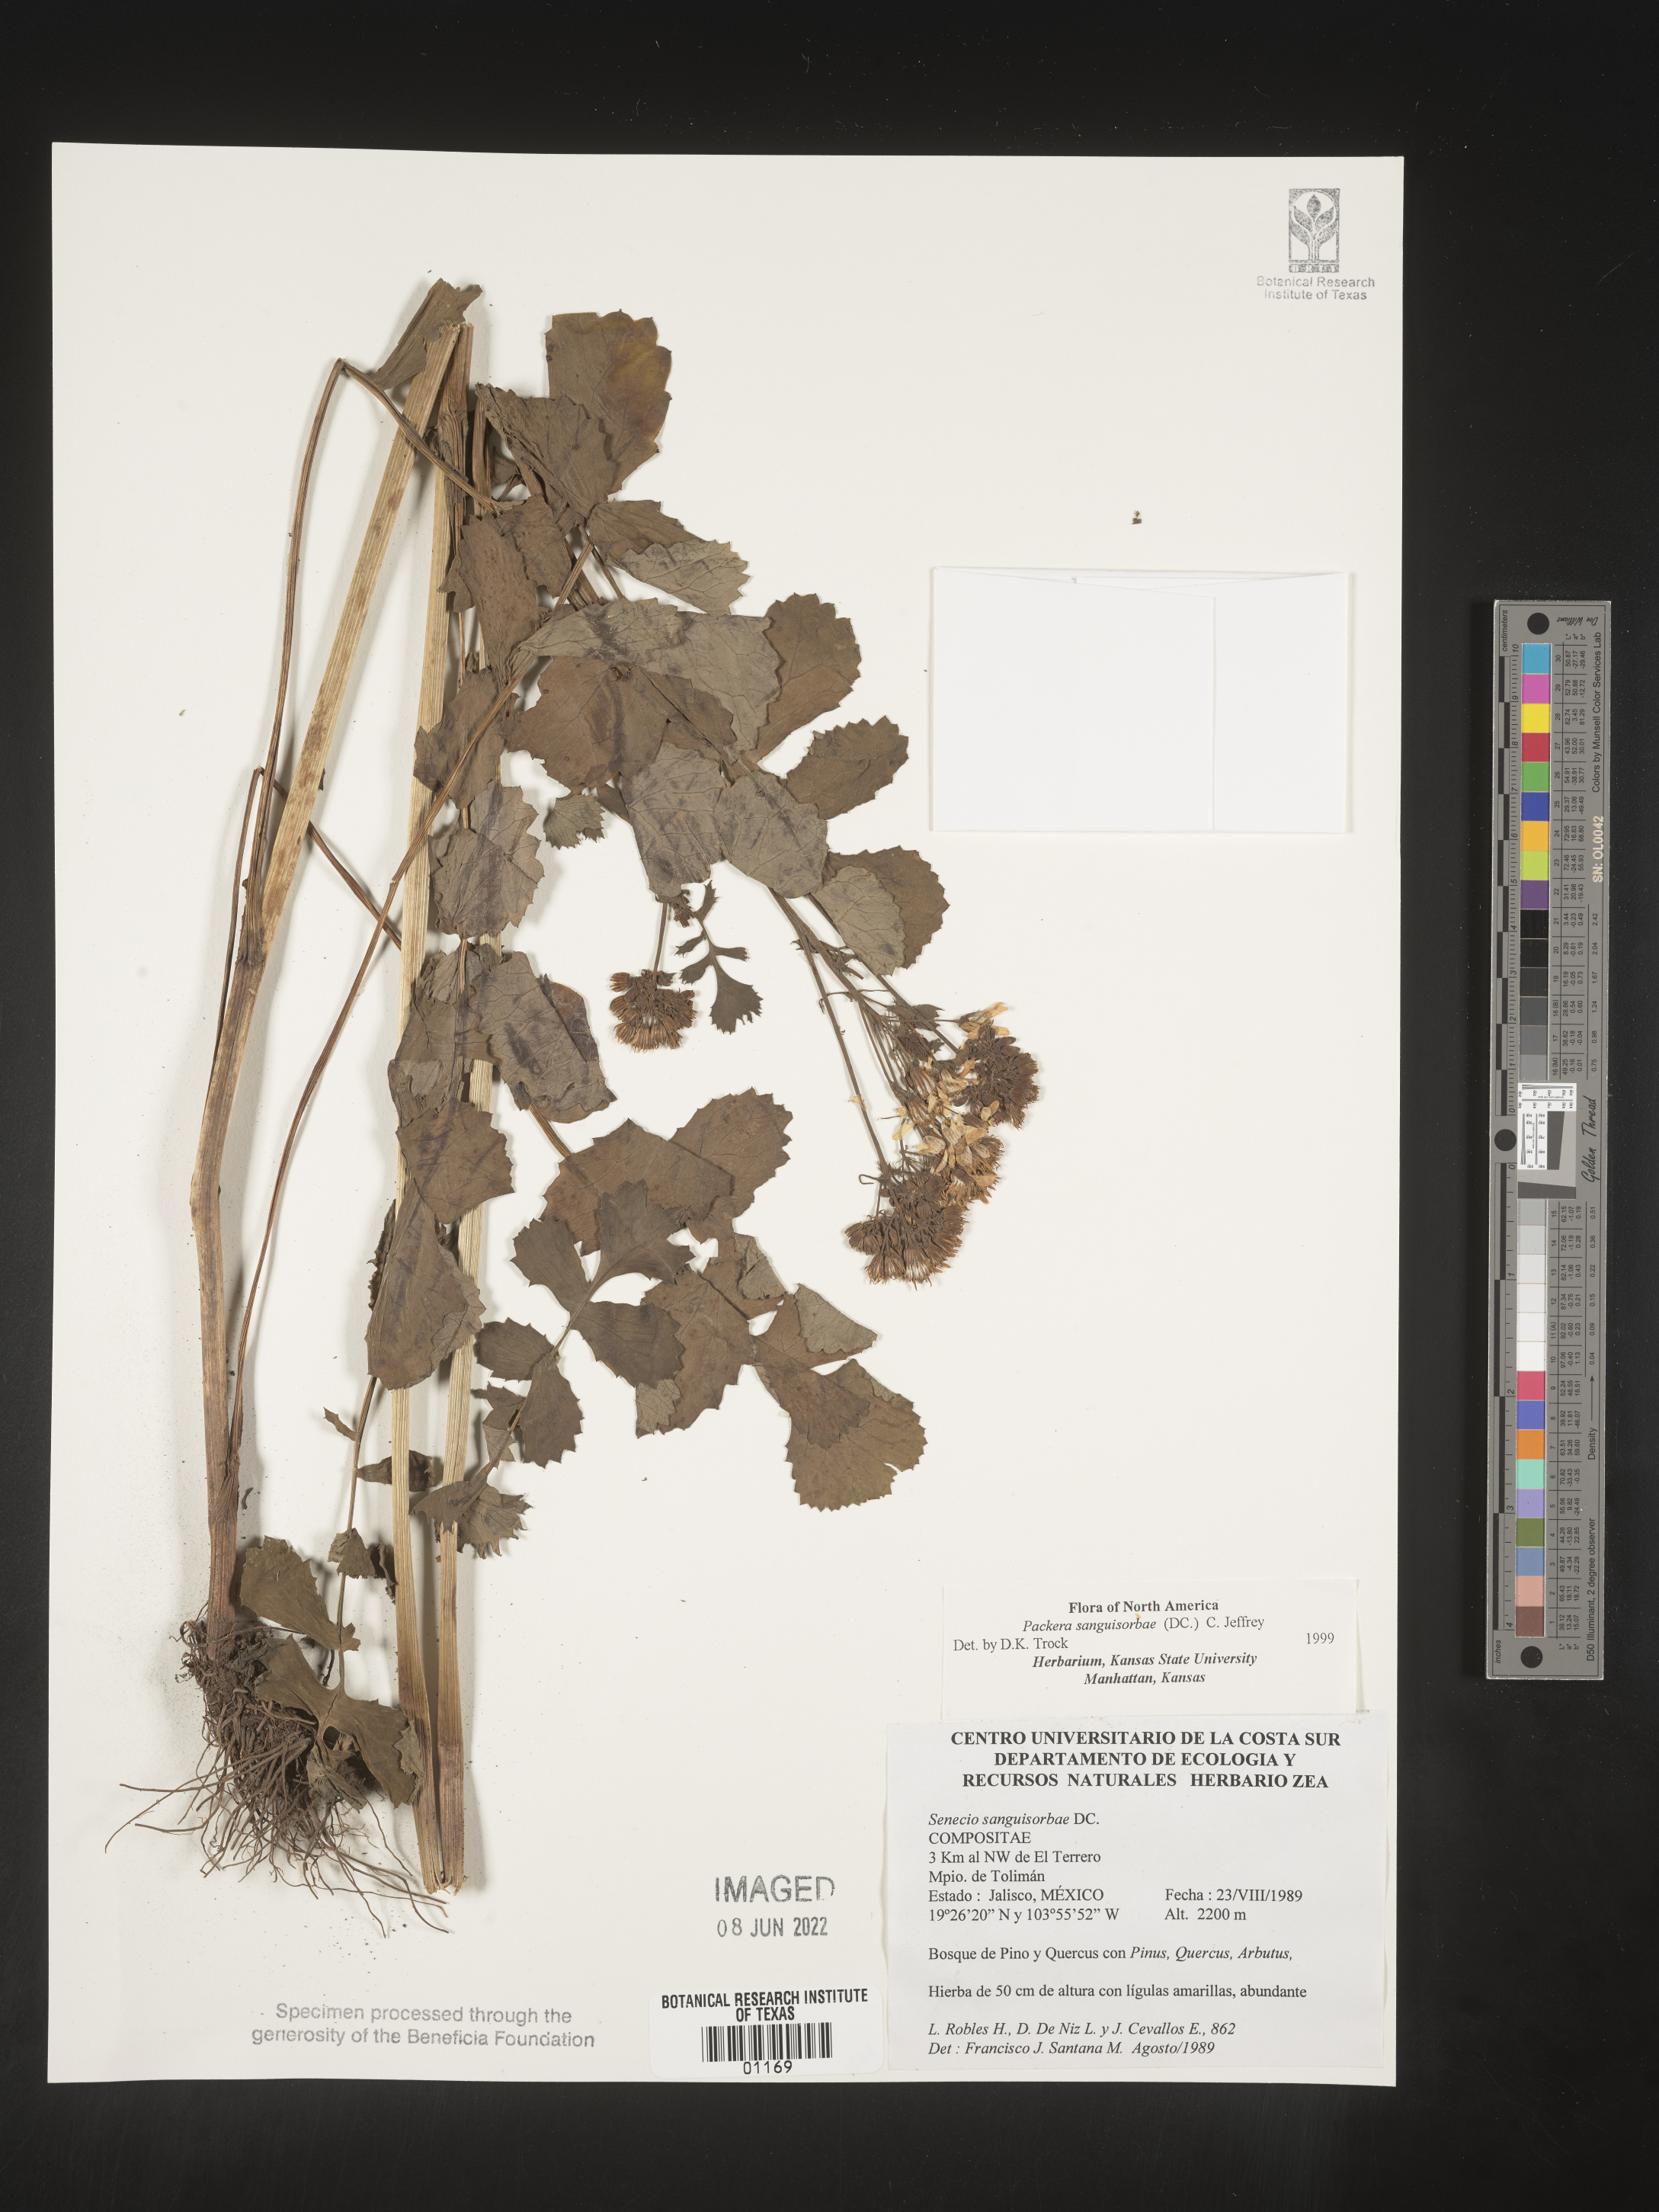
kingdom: Plantae
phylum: Tracheophyta
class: Magnoliopsida
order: Asterales
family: Asteraceae
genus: Packera
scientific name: Packera
